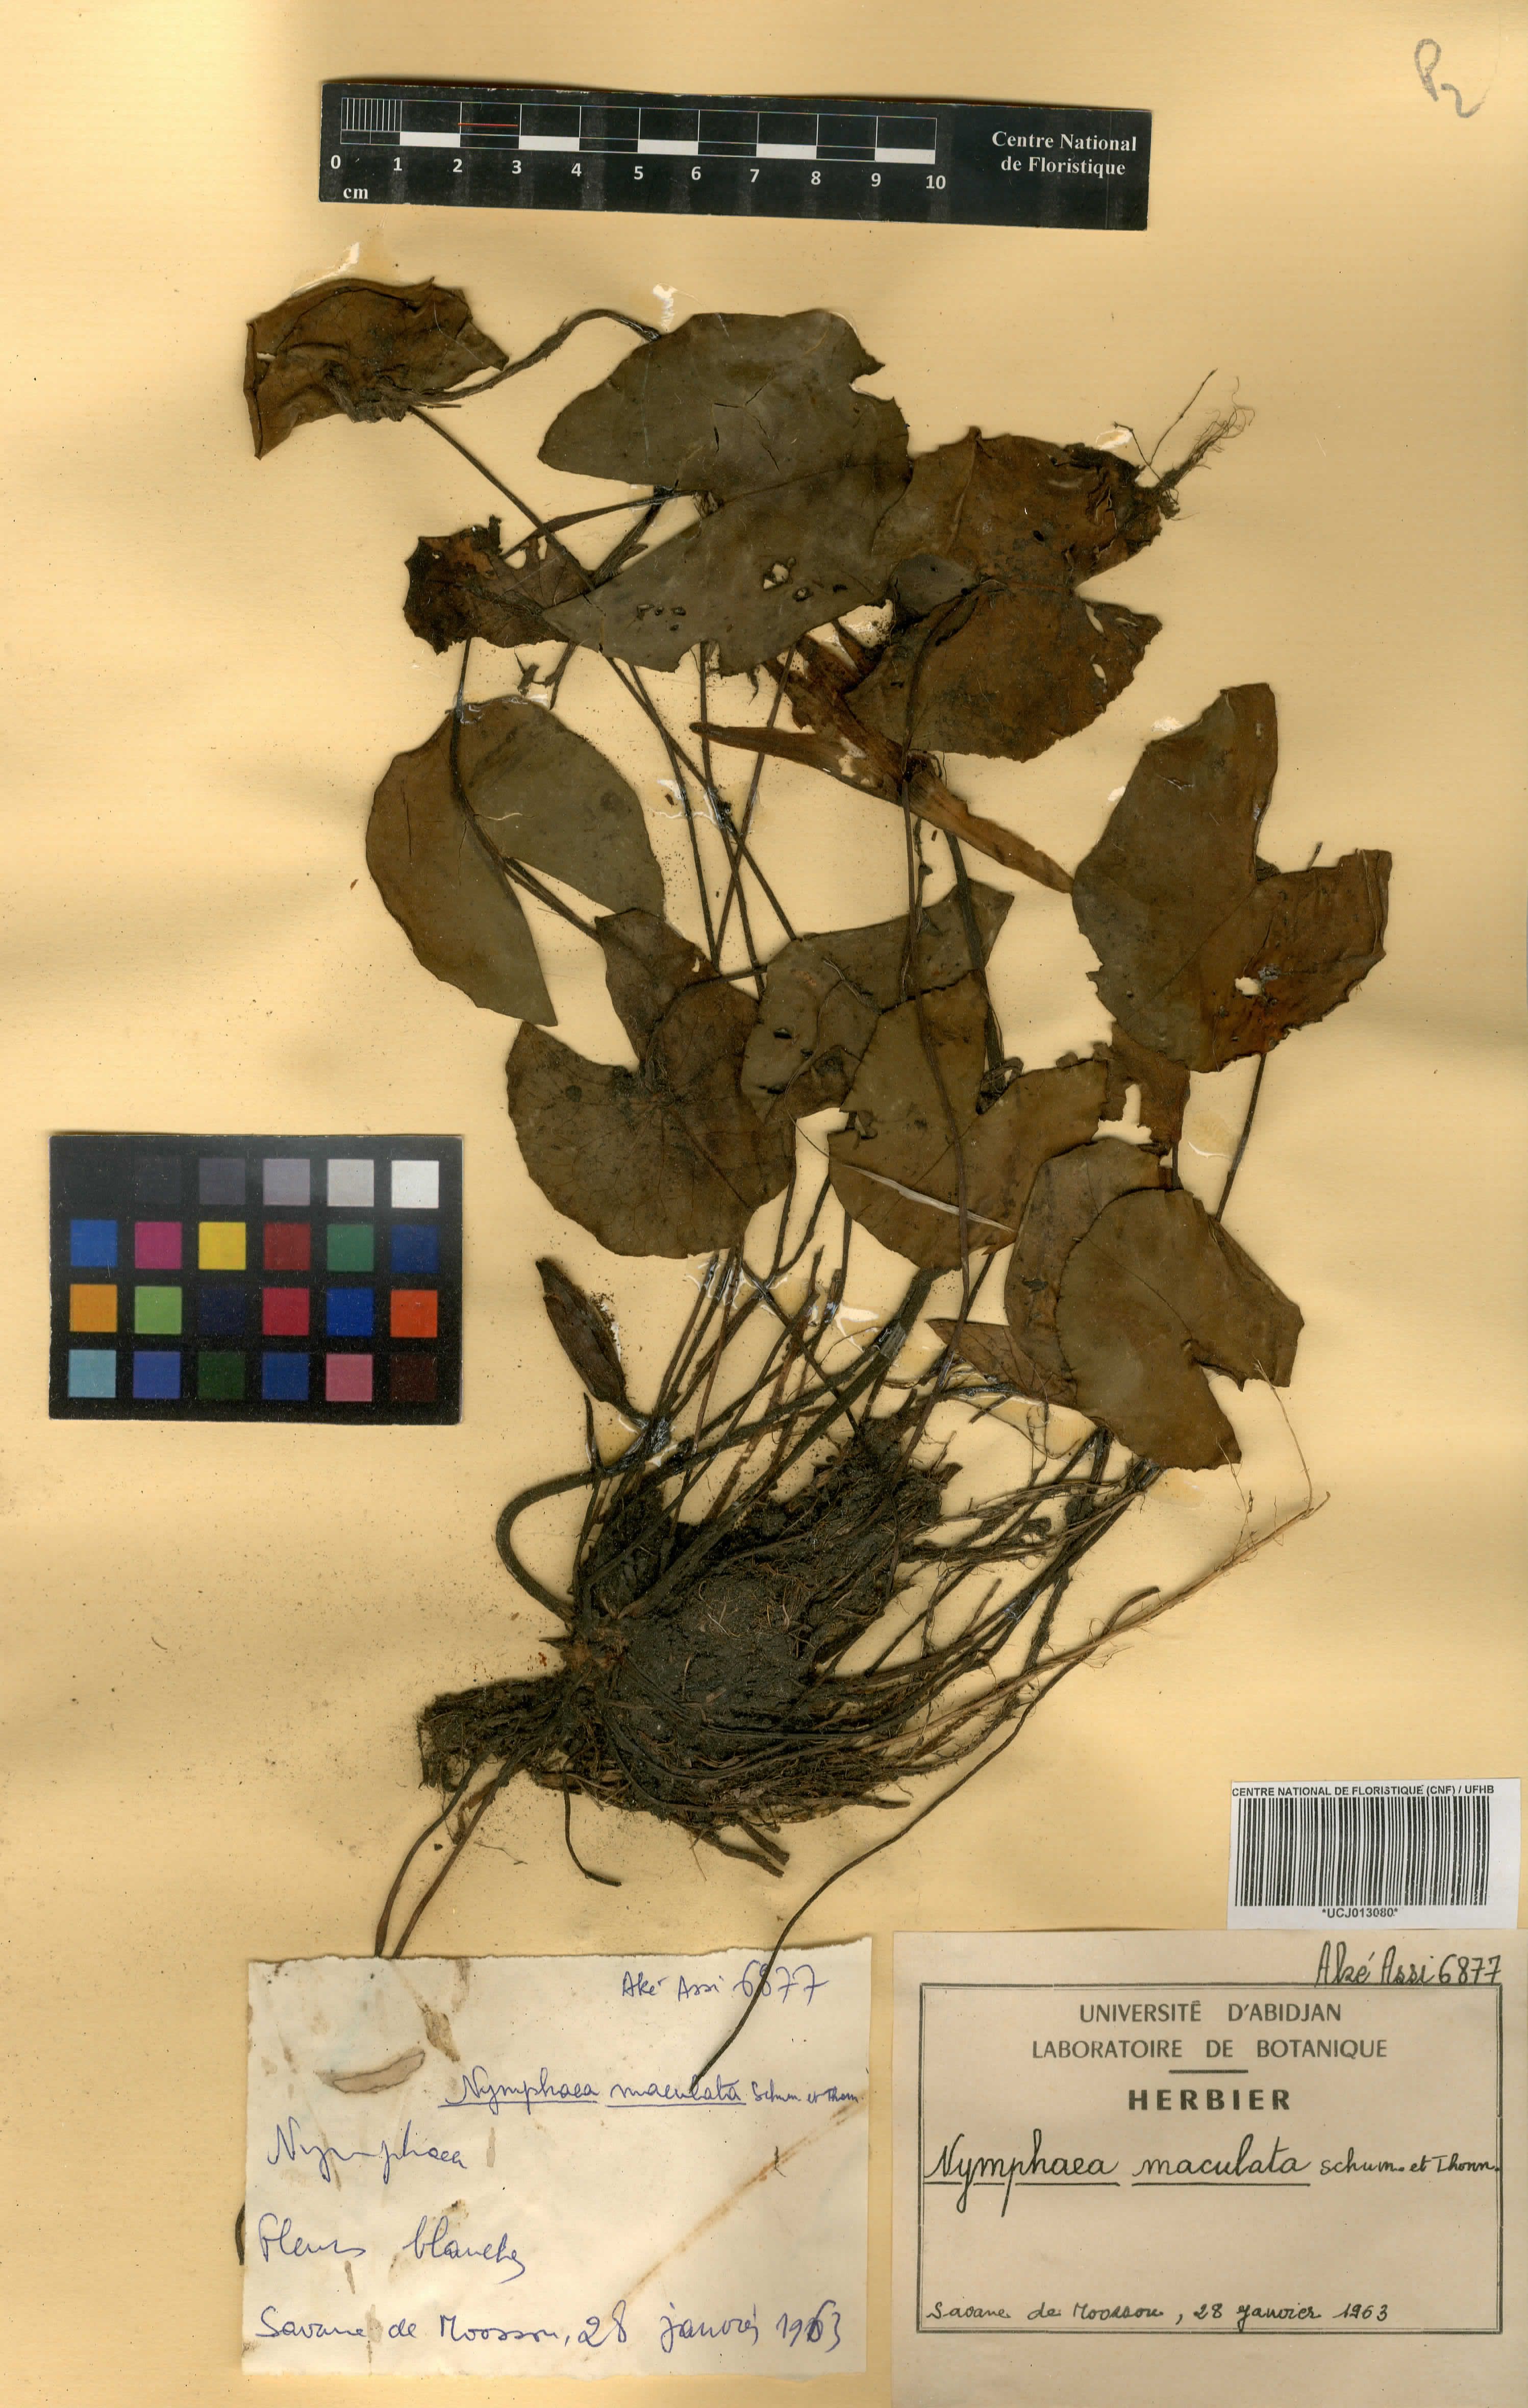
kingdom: Plantae
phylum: Tracheophyta
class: Magnoliopsida
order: Nymphaeales
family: Nymphaeaceae
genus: Nymphaea
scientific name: Nymphaea maculata
